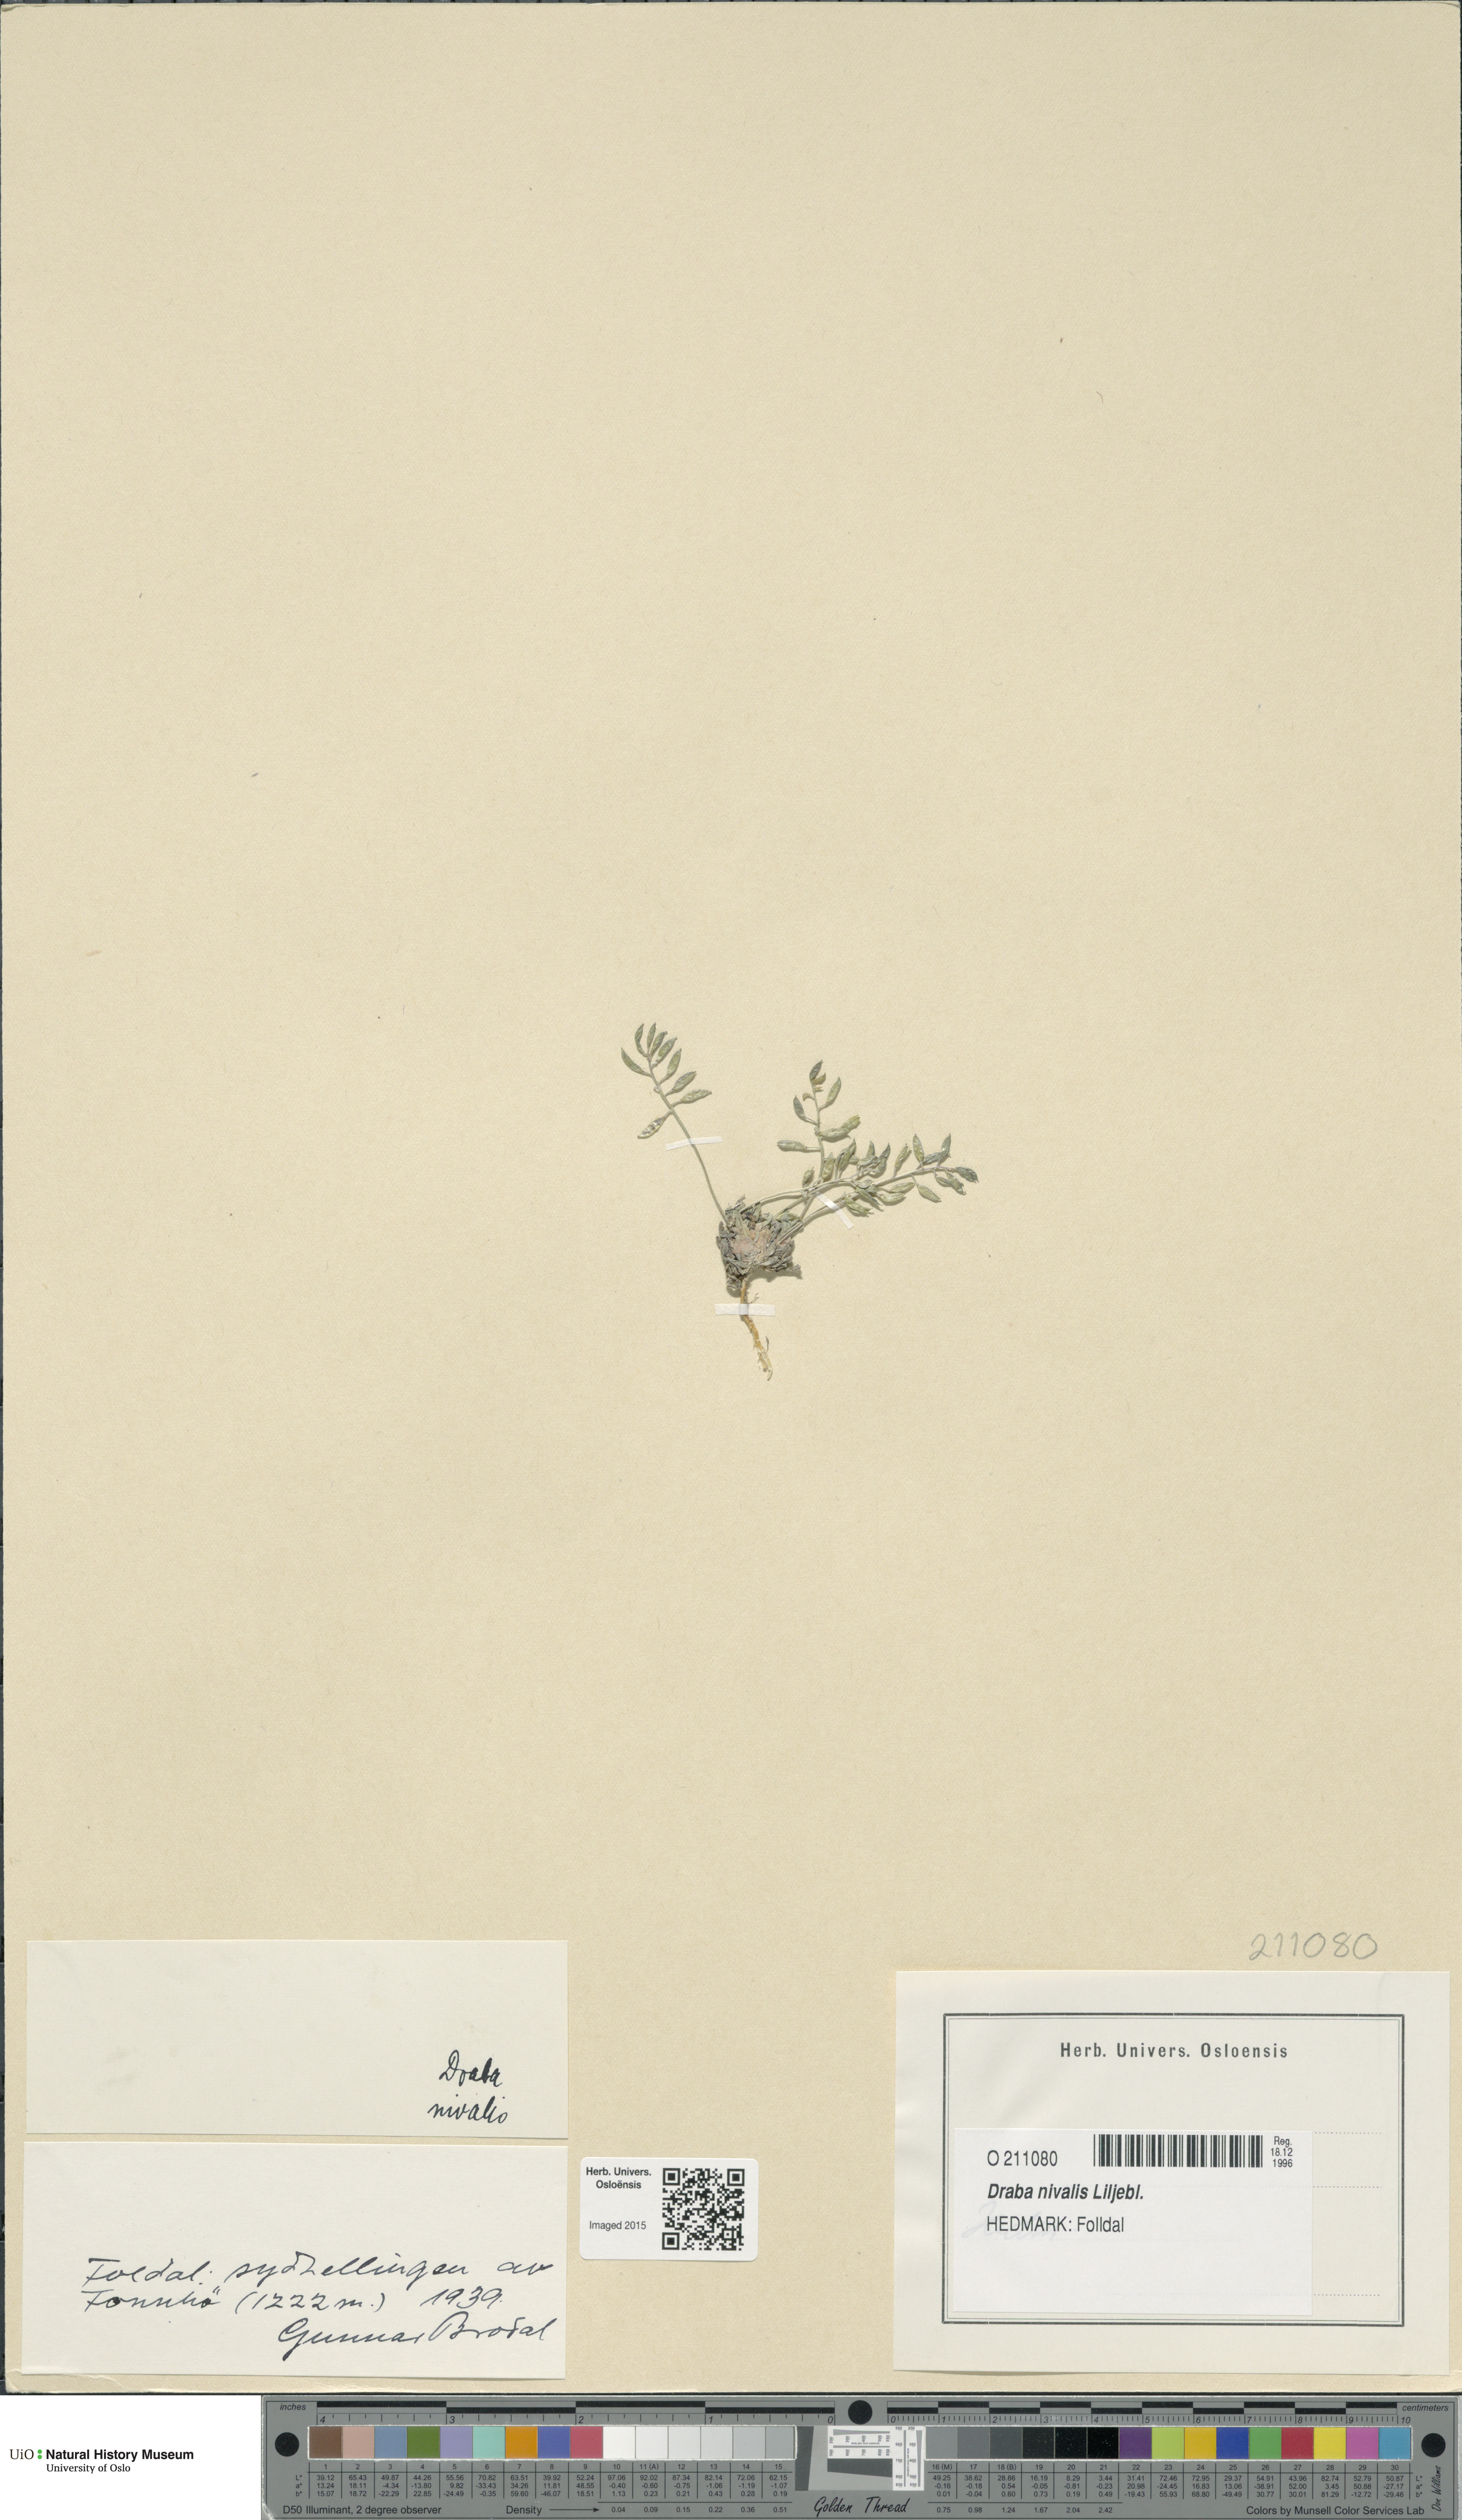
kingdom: Plantae
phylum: Tracheophyta
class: Magnoliopsida
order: Brassicales
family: Brassicaceae
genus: Draba
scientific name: Draba nivalis
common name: Snow draba
